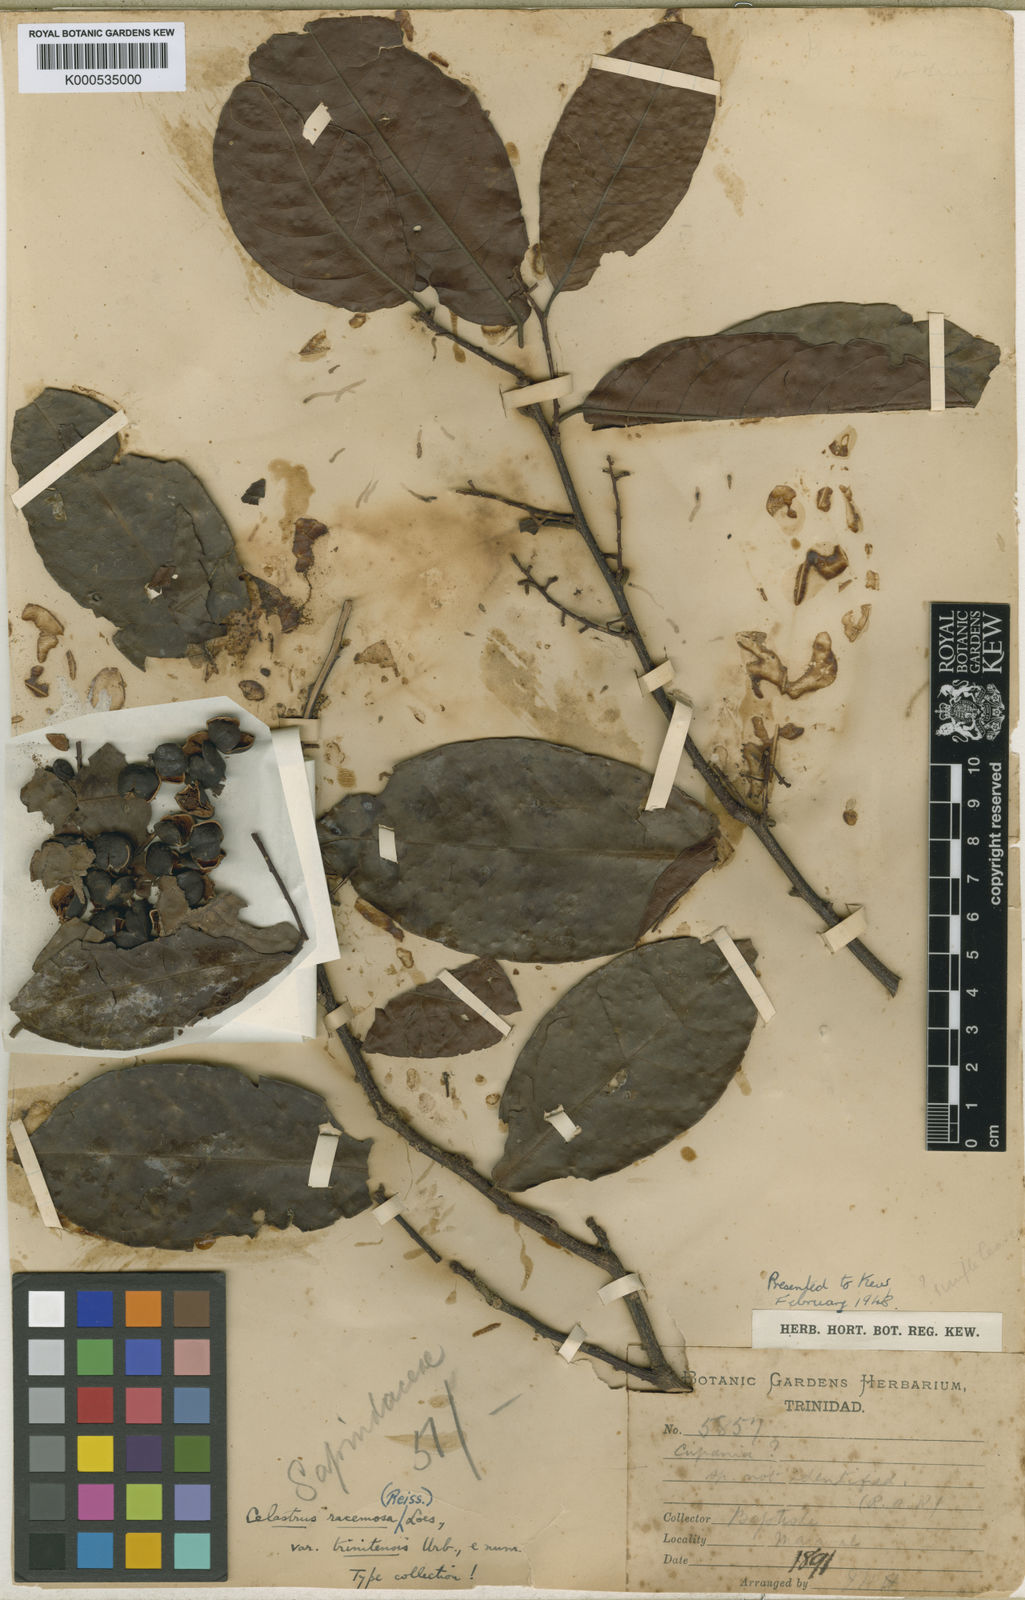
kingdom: Plantae
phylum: Tracheophyta
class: Magnoliopsida
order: Celastrales
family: Celastraceae
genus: Celastrus
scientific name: Celastrus paniculatus
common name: Oriental bittersweet; staff vine
